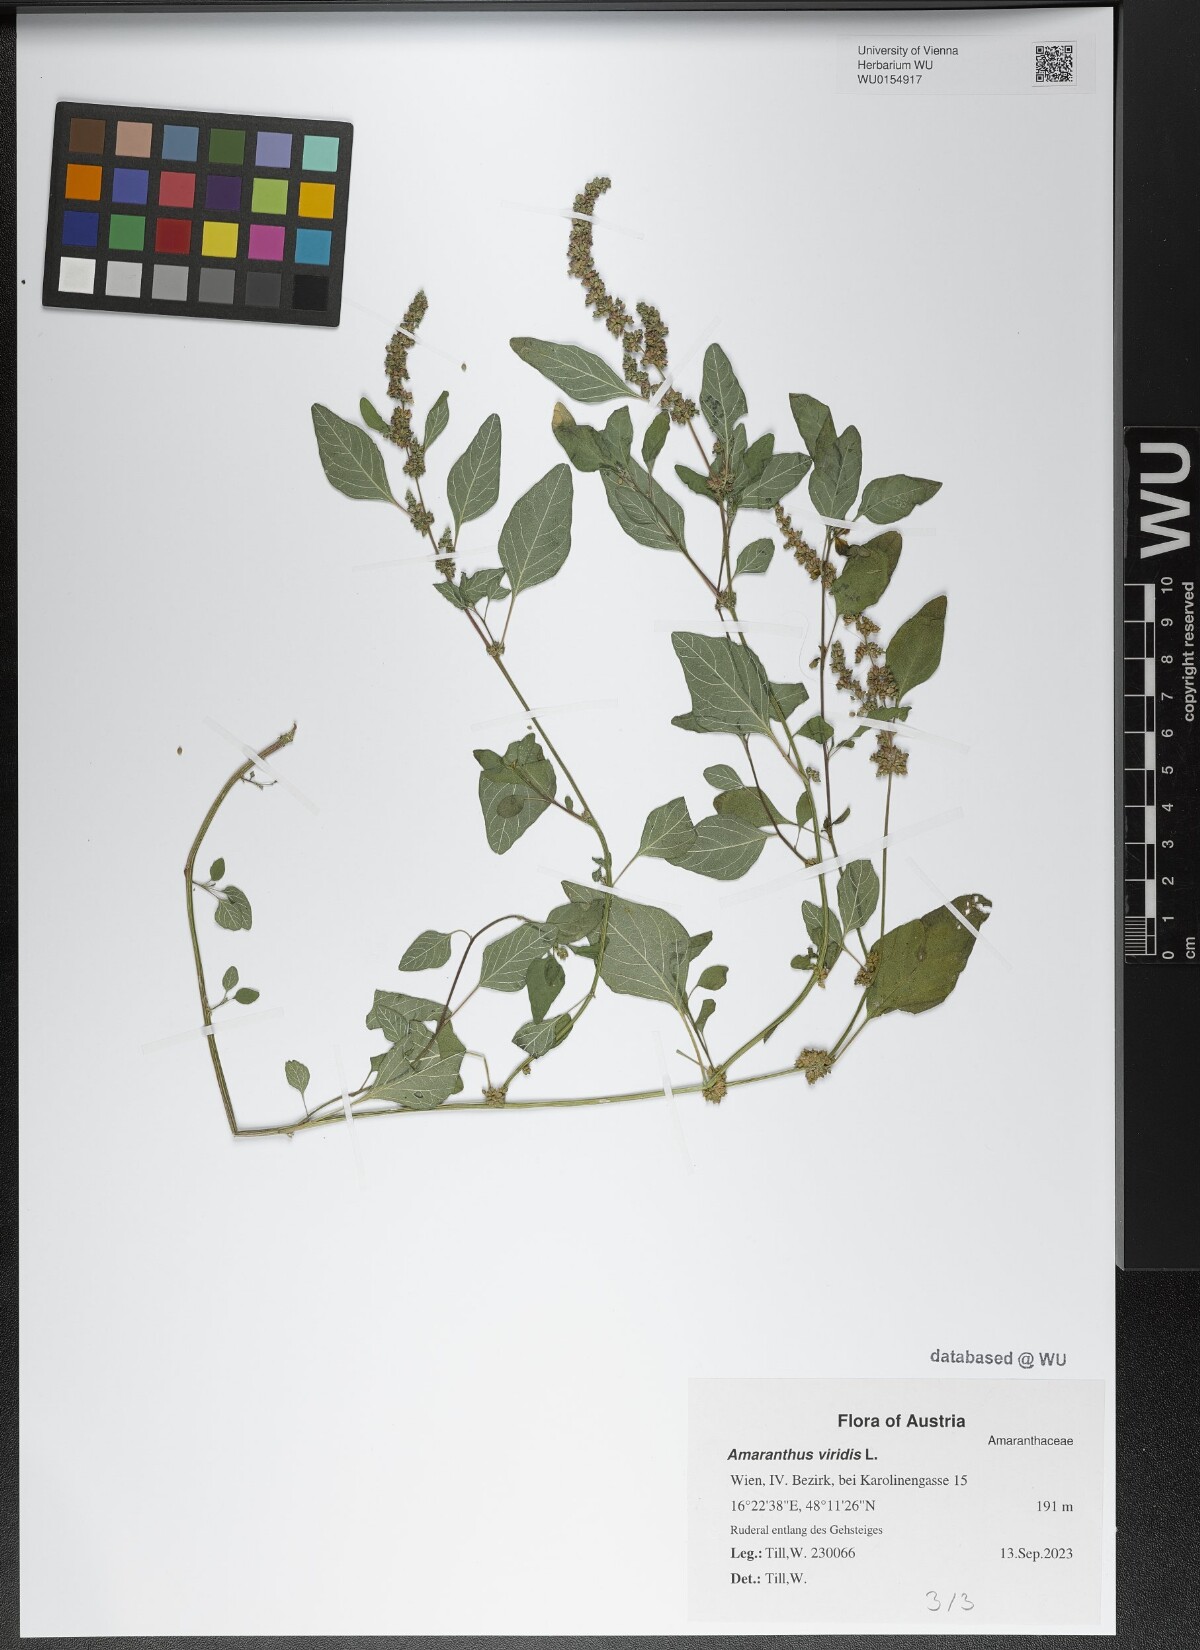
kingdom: Plantae
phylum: Tracheophyta
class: Magnoliopsida
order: Caryophyllales
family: Amaranthaceae
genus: Amaranthus
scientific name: Amaranthus viridis
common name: Slender amaranth
